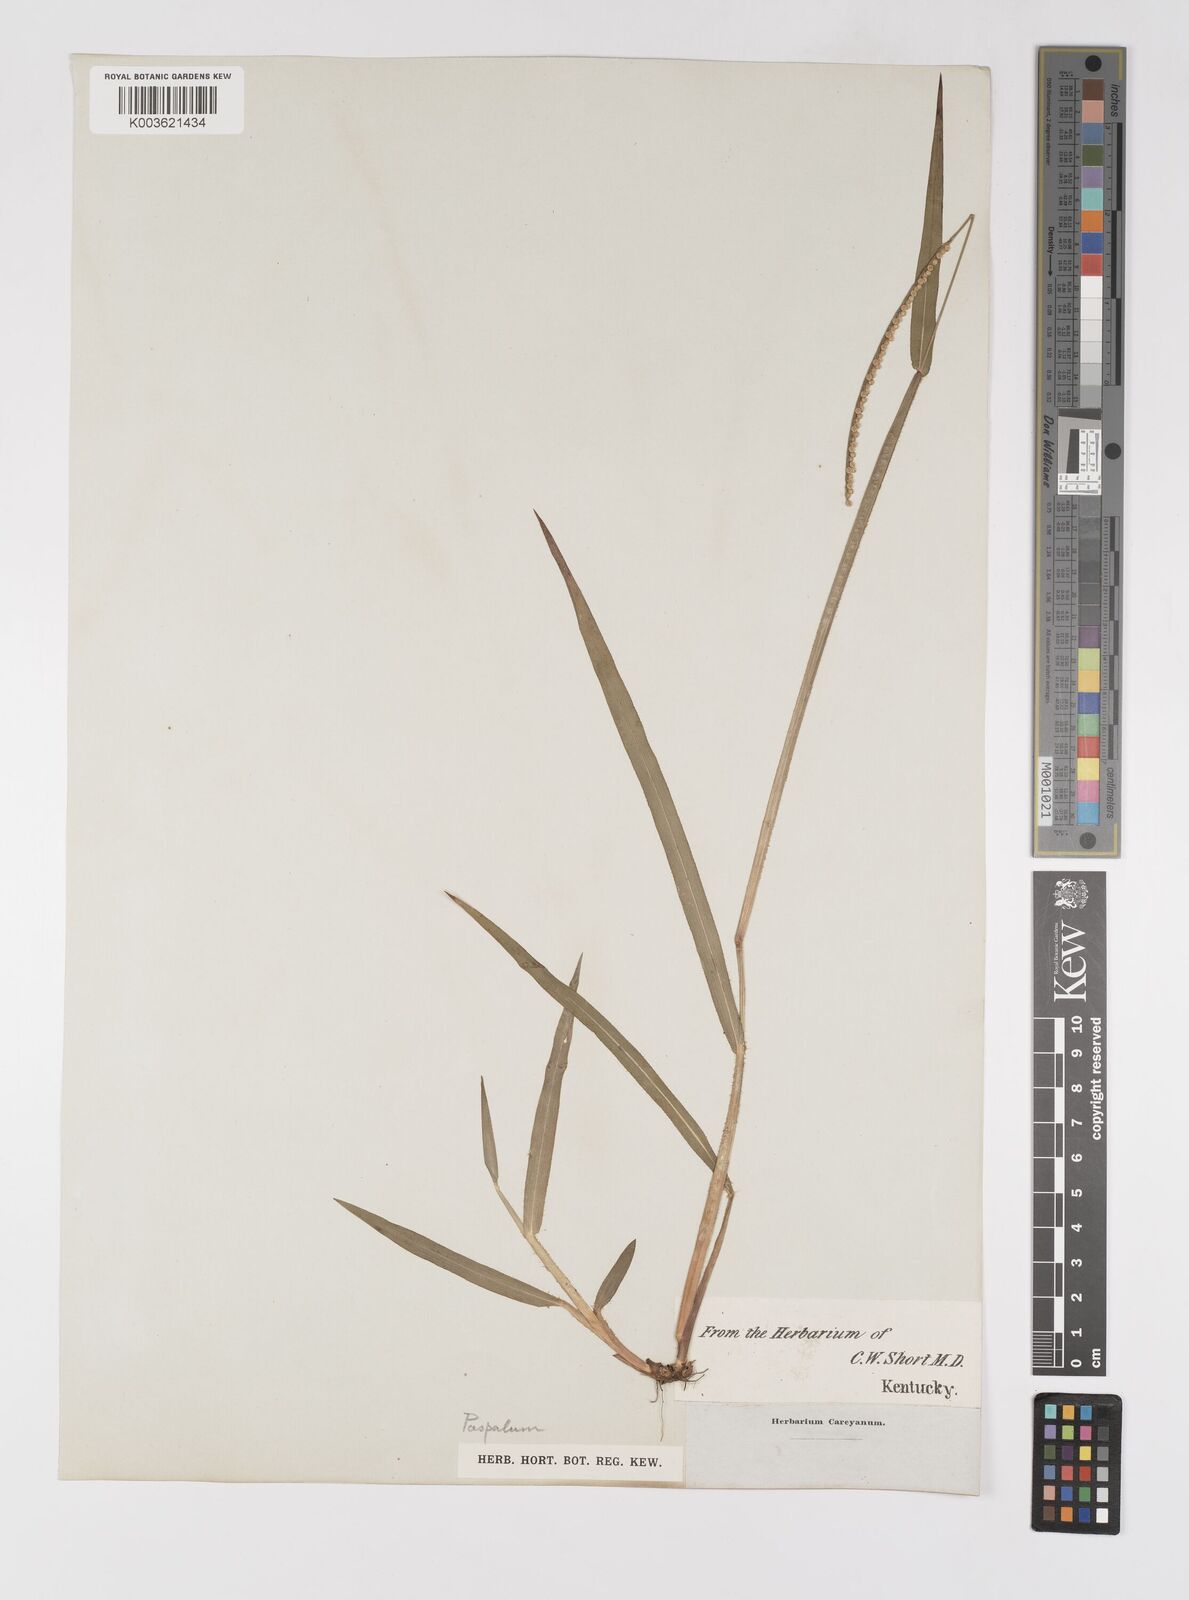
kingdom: Plantae
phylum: Tracheophyta
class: Liliopsida
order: Poales
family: Poaceae
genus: Paspalum
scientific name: Paspalum
